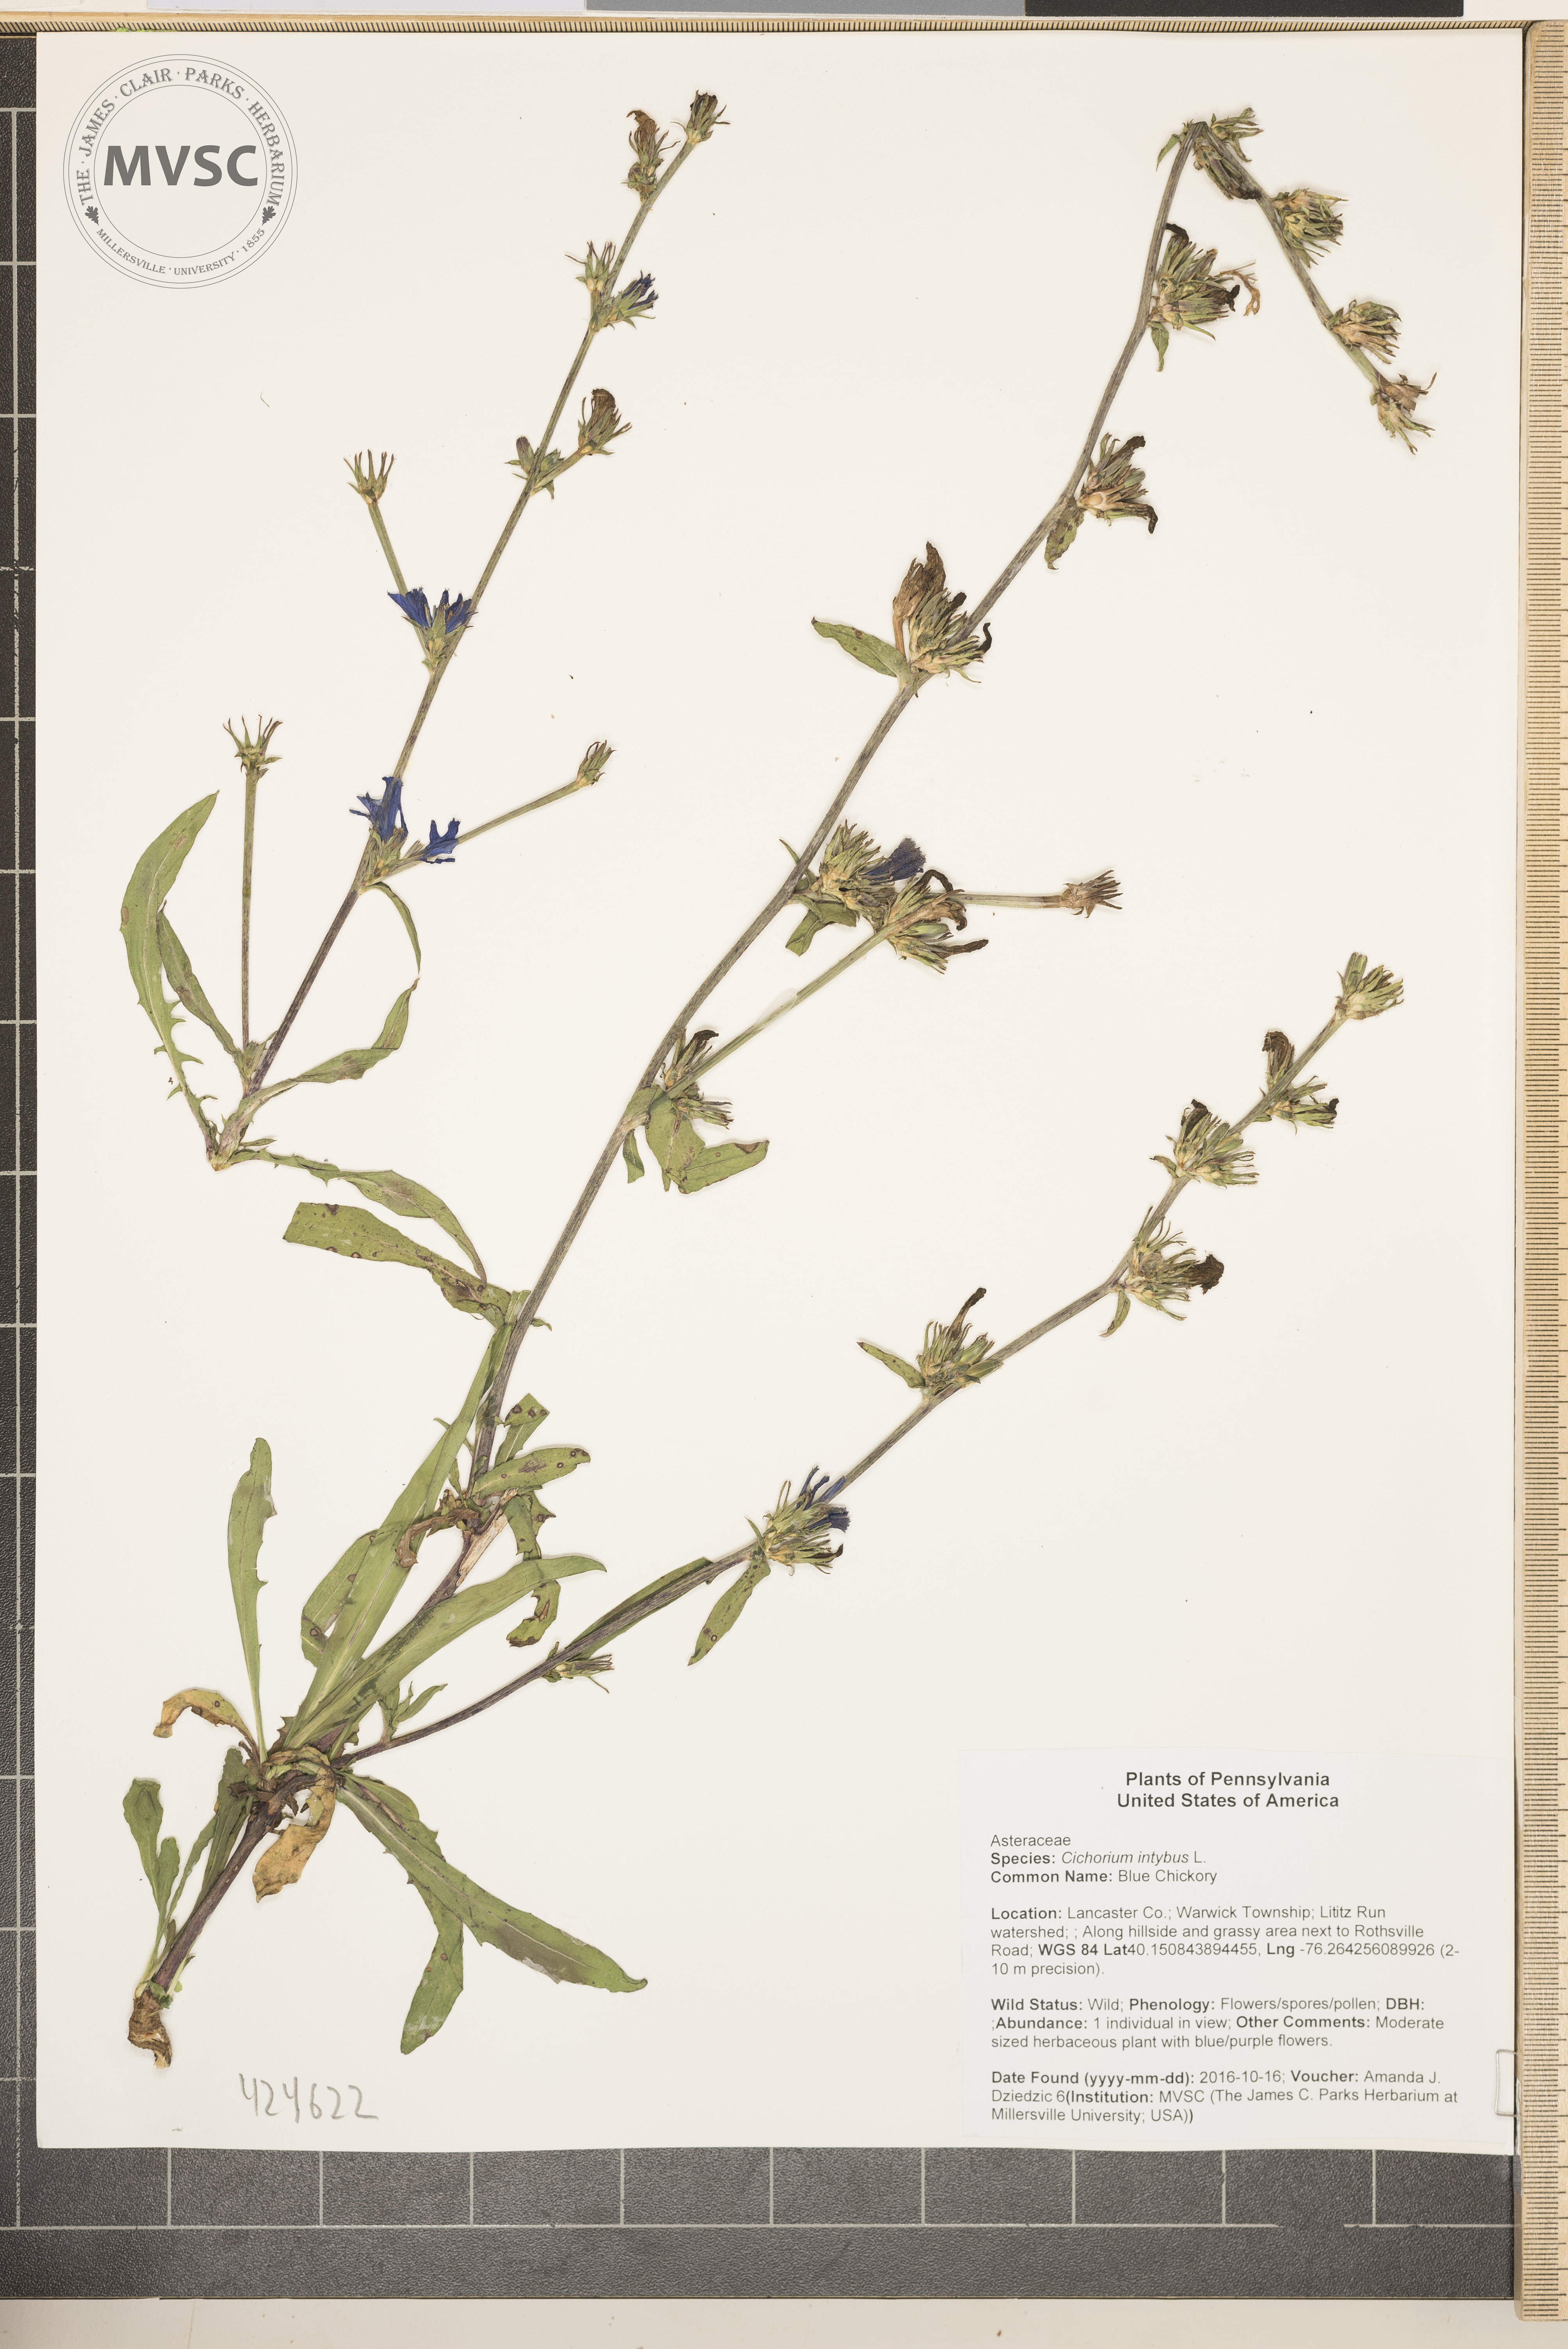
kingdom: Plantae
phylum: Tracheophyta
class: Magnoliopsida
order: Asterales
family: Asteraceae
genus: Cichorium
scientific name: Cichorium intybus
